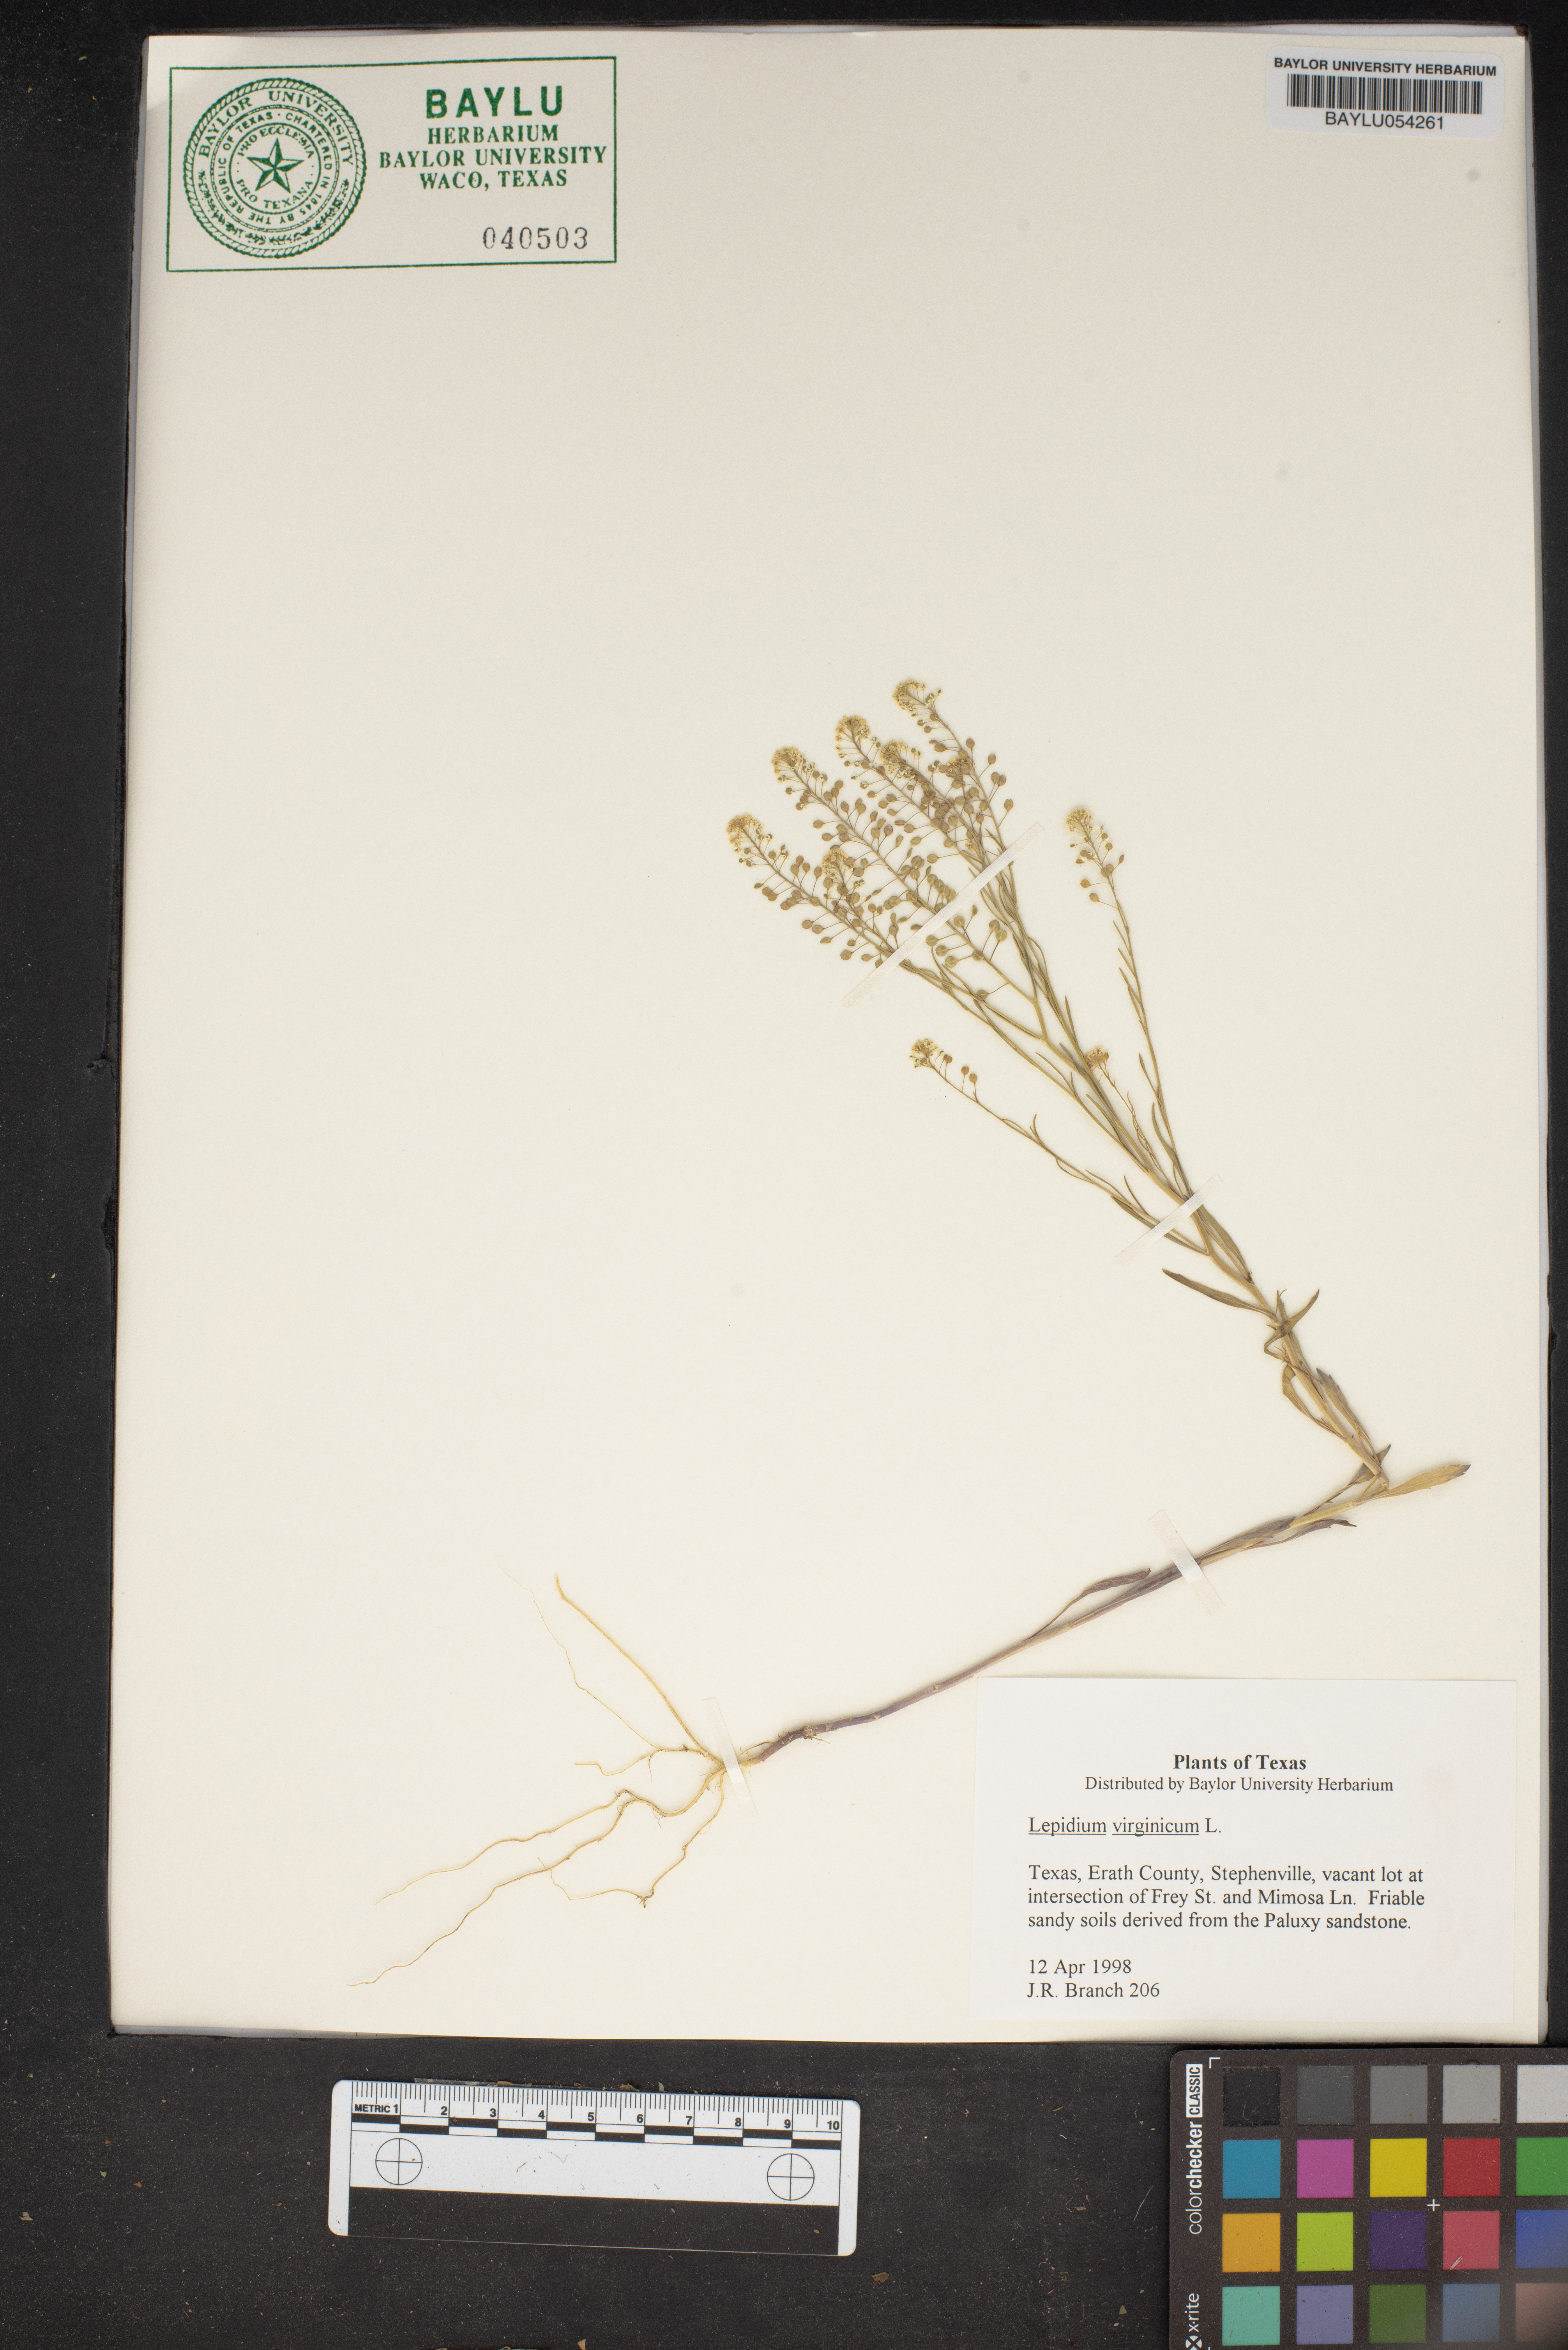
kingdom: Plantae
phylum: Tracheophyta
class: Magnoliopsida
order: Brassicales
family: Brassicaceae
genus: Lepidium
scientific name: Lepidium virginicum
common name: Least pepperwort
